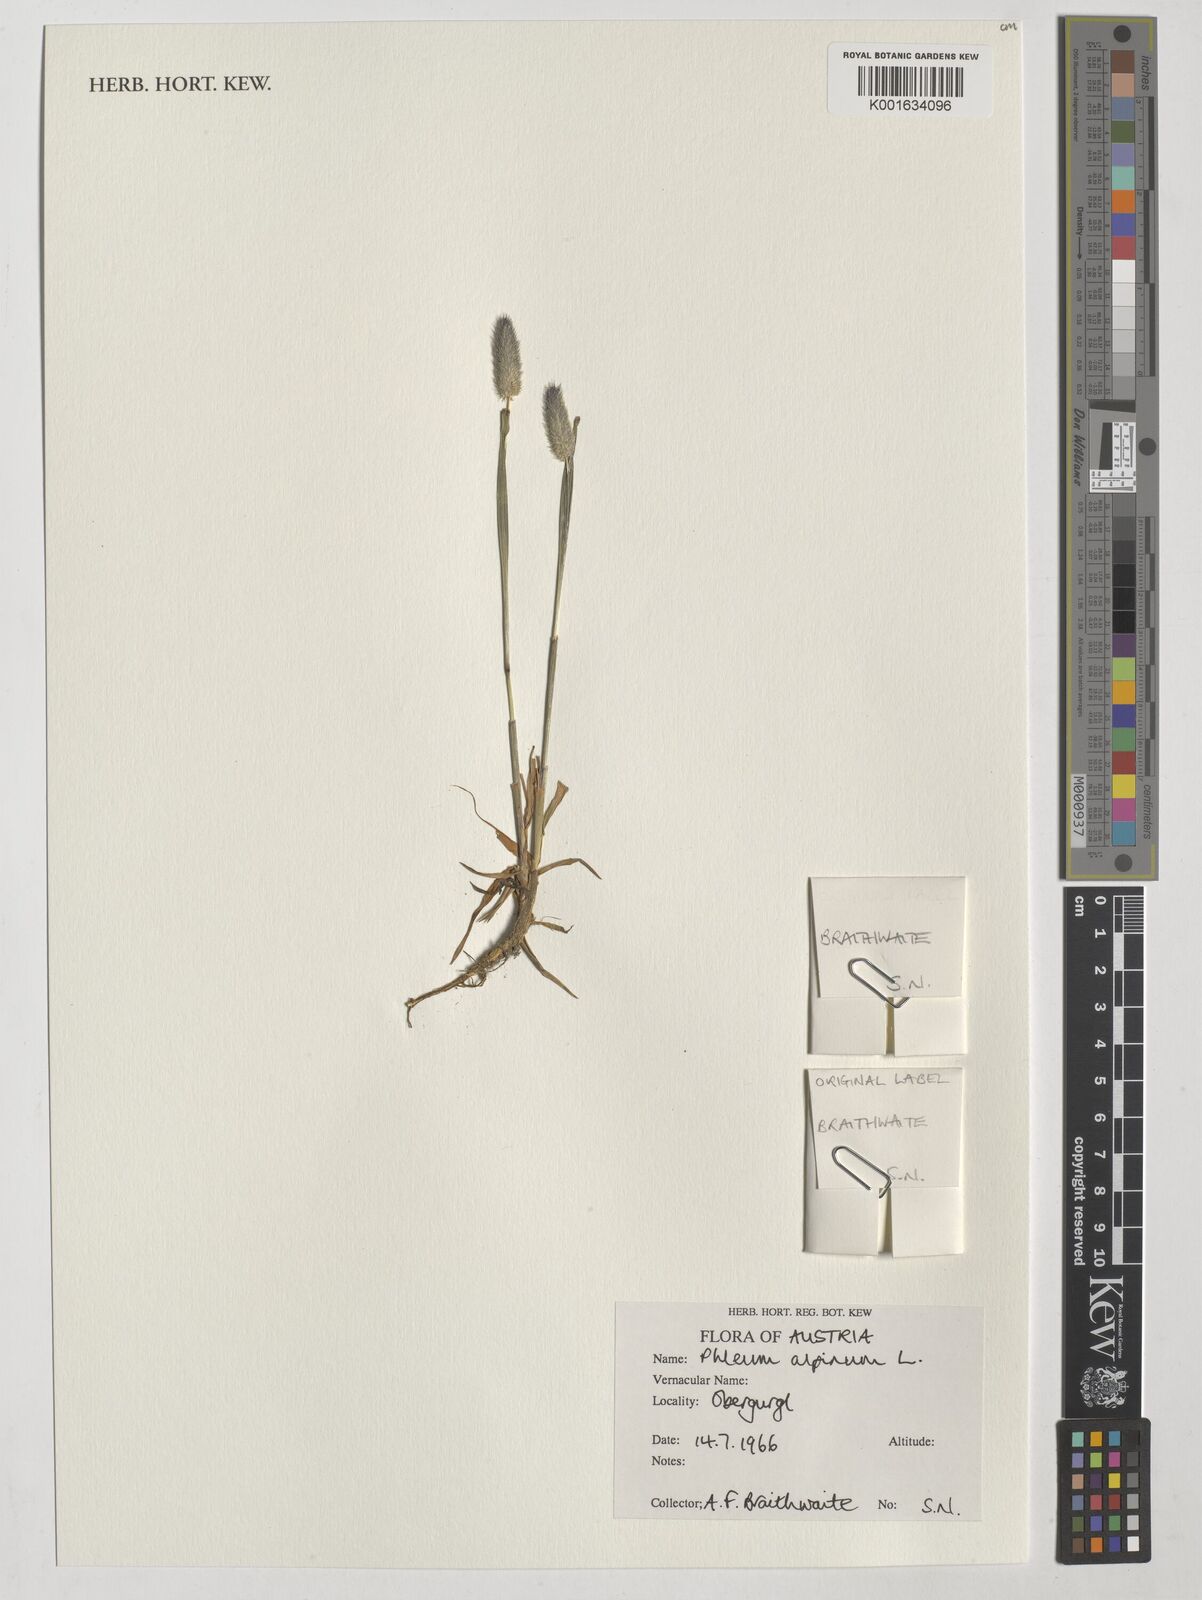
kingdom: Plantae
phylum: Tracheophyta
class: Liliopsida
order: Poales
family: Poaceae
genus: Phleum
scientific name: Phleum alpinum
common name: Alpine cat's-tail
